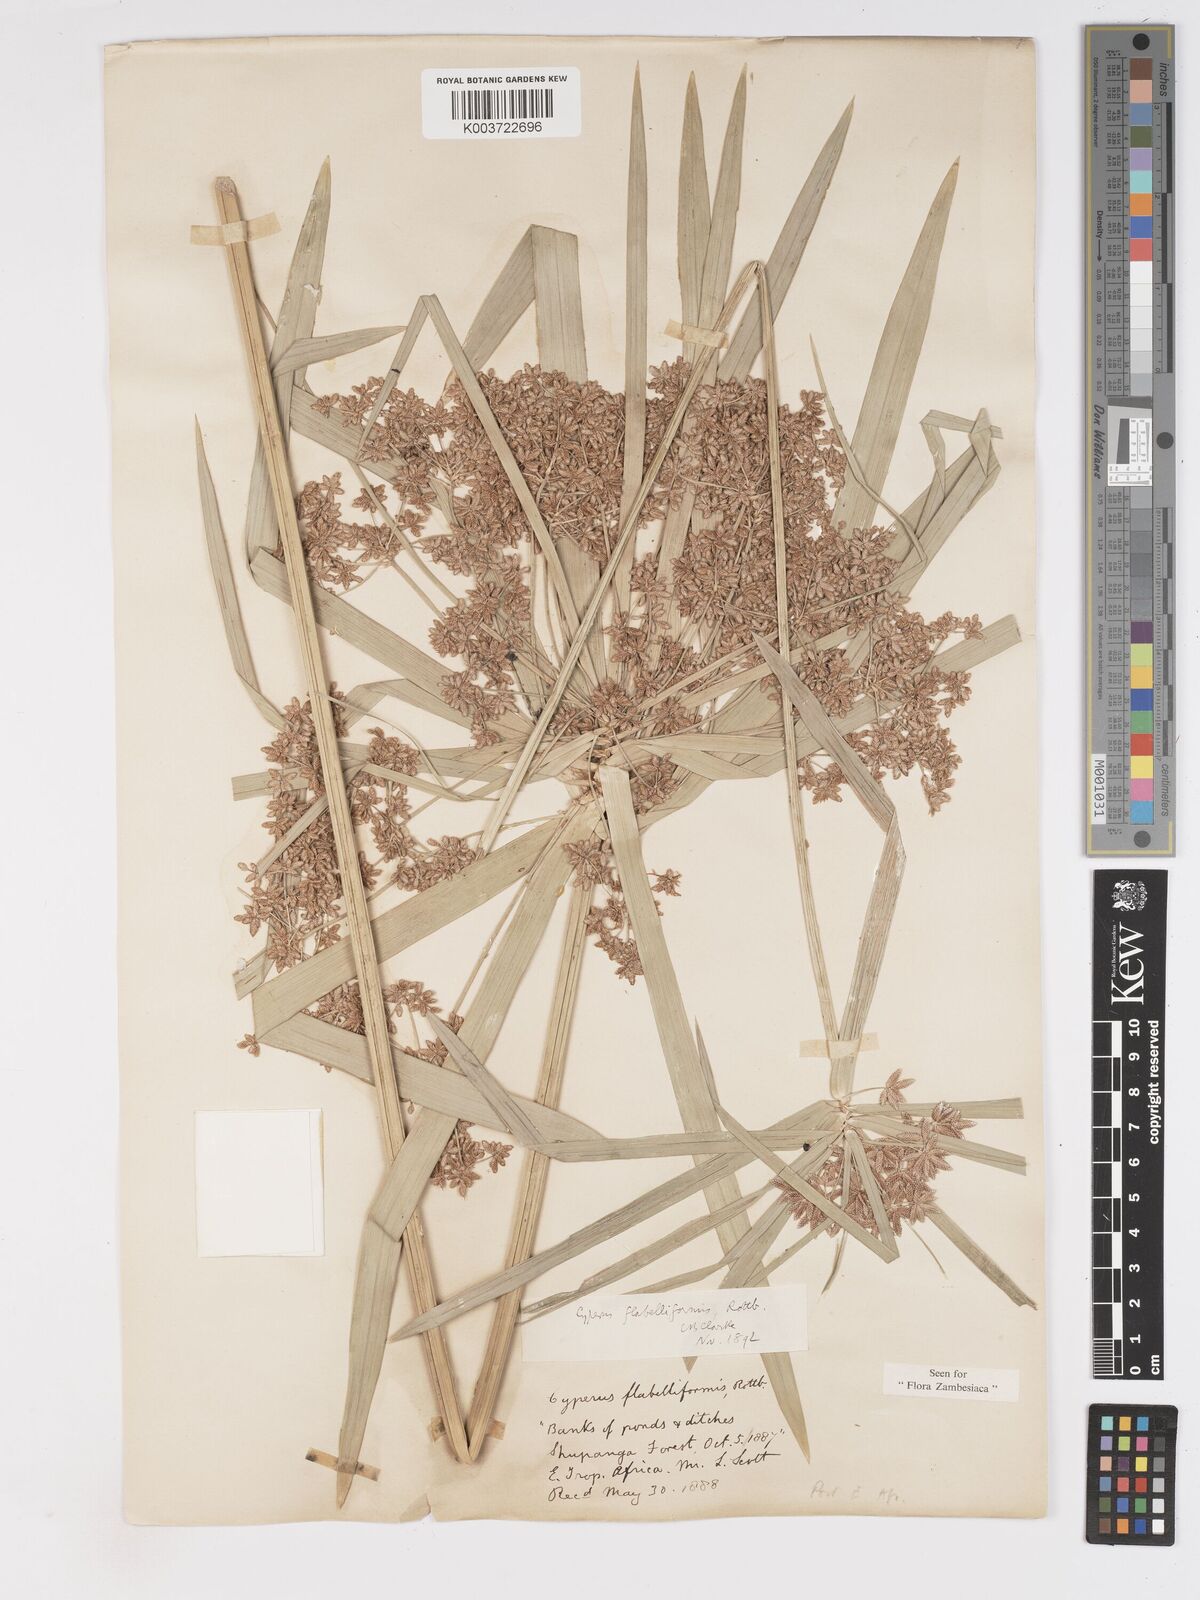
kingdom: Plantae
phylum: Tracheophyta
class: Liliopsida
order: Poales
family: Cyperaceae
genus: Cyperus
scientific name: Cyperus alternifolius
